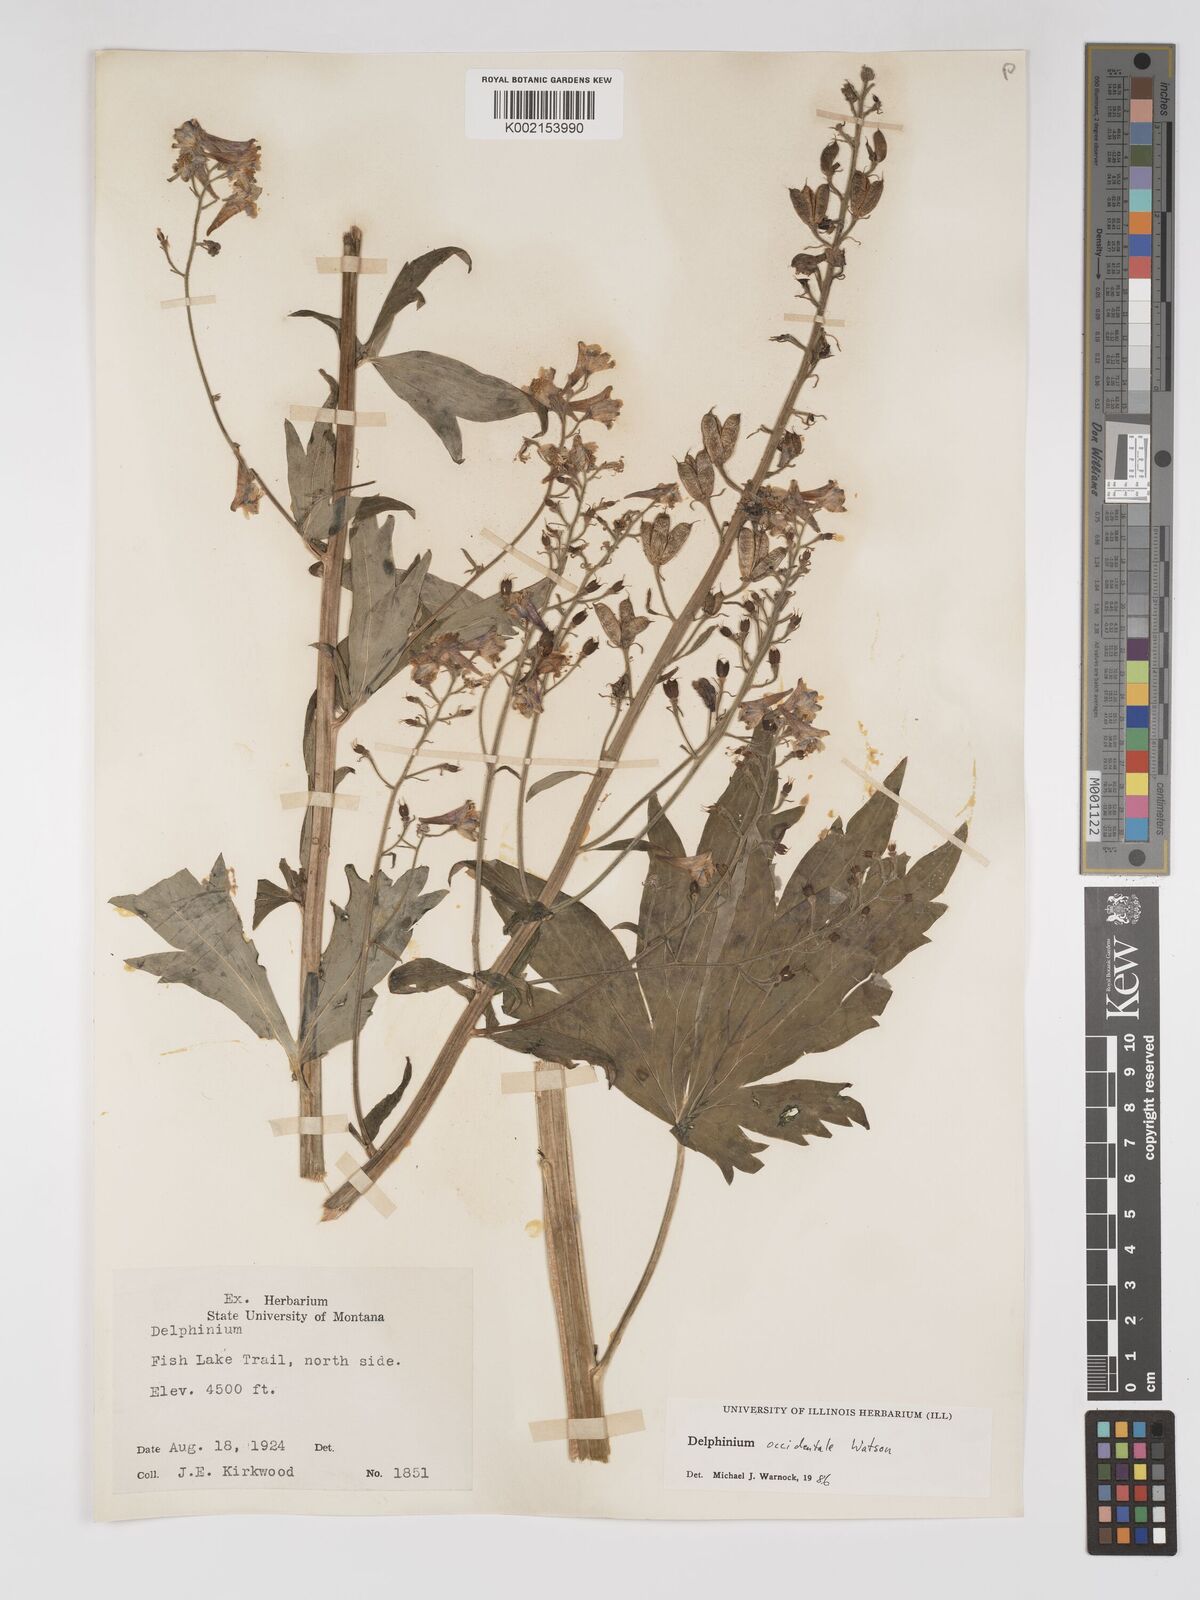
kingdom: Plantae
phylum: Tracheophyta
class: Magnoliopsida
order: Ranunculales
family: Ranunculaceae
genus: Delphinium
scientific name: Delphinium occidentale
